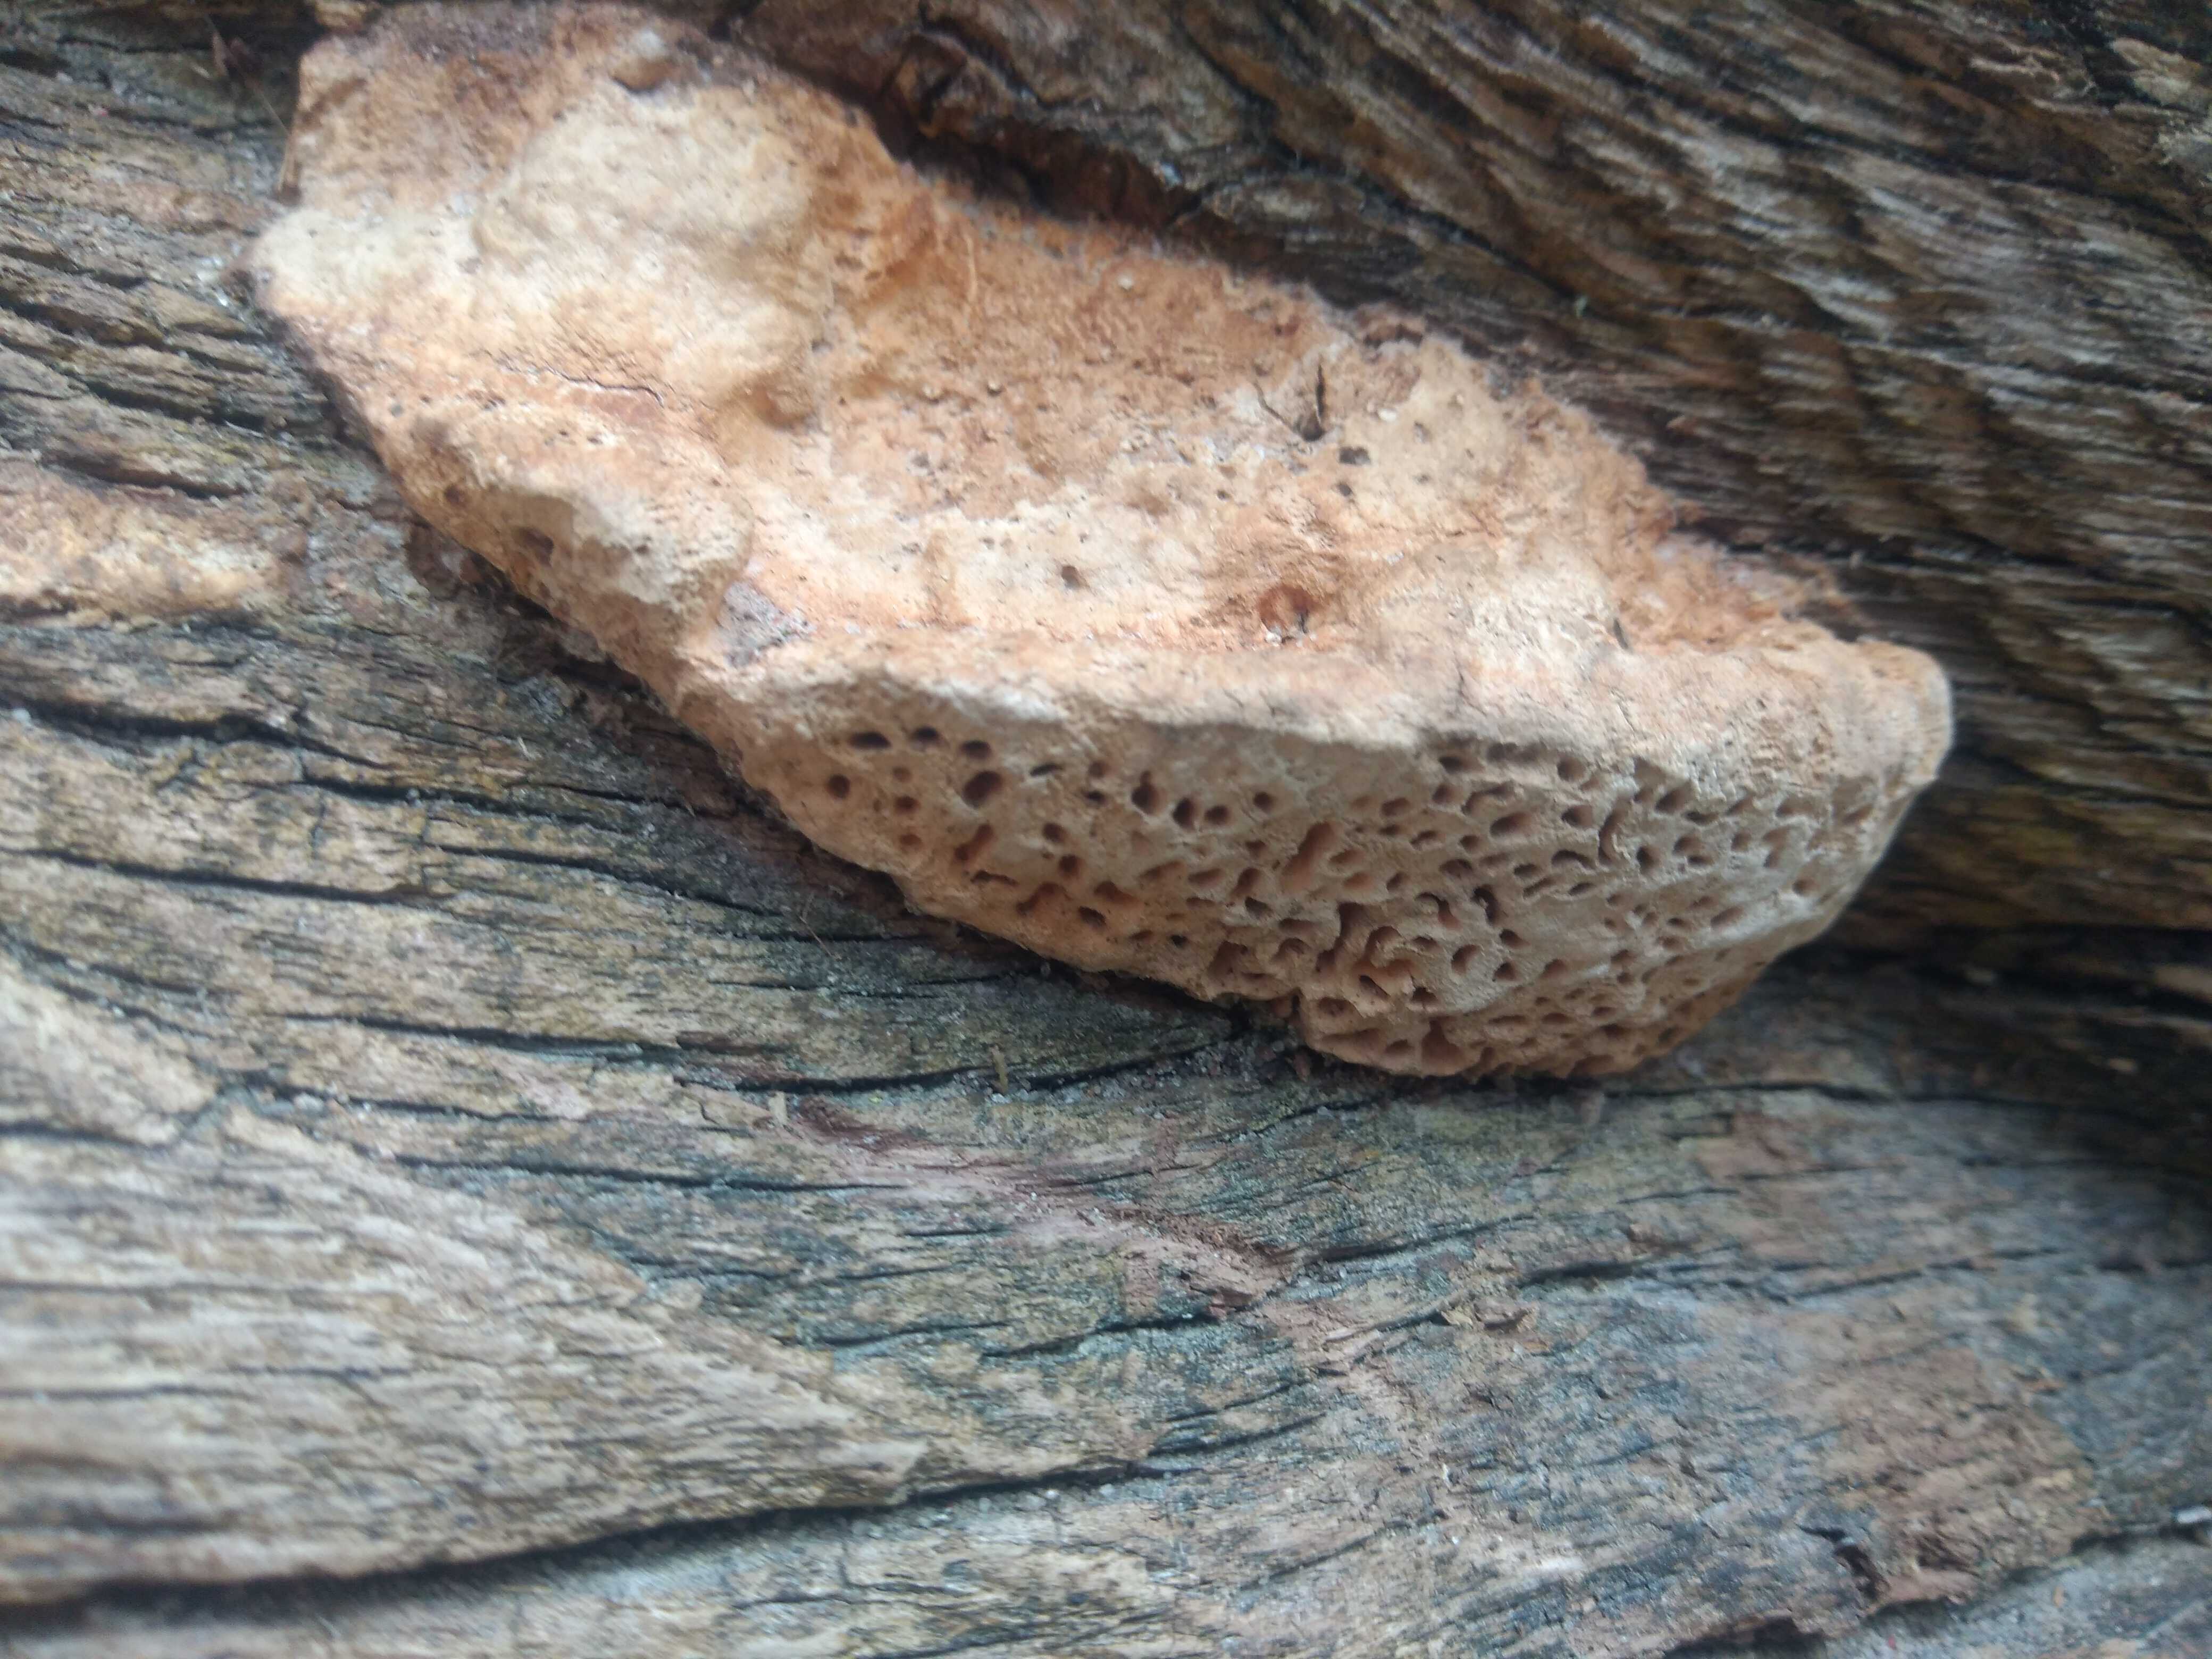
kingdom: Fungi
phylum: Basidiomycota
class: Agaricomycetes
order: Polyporales
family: Fomitopsidaceae
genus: Daedalea
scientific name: Daedalea quercina
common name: ege-labyrintsvamp
